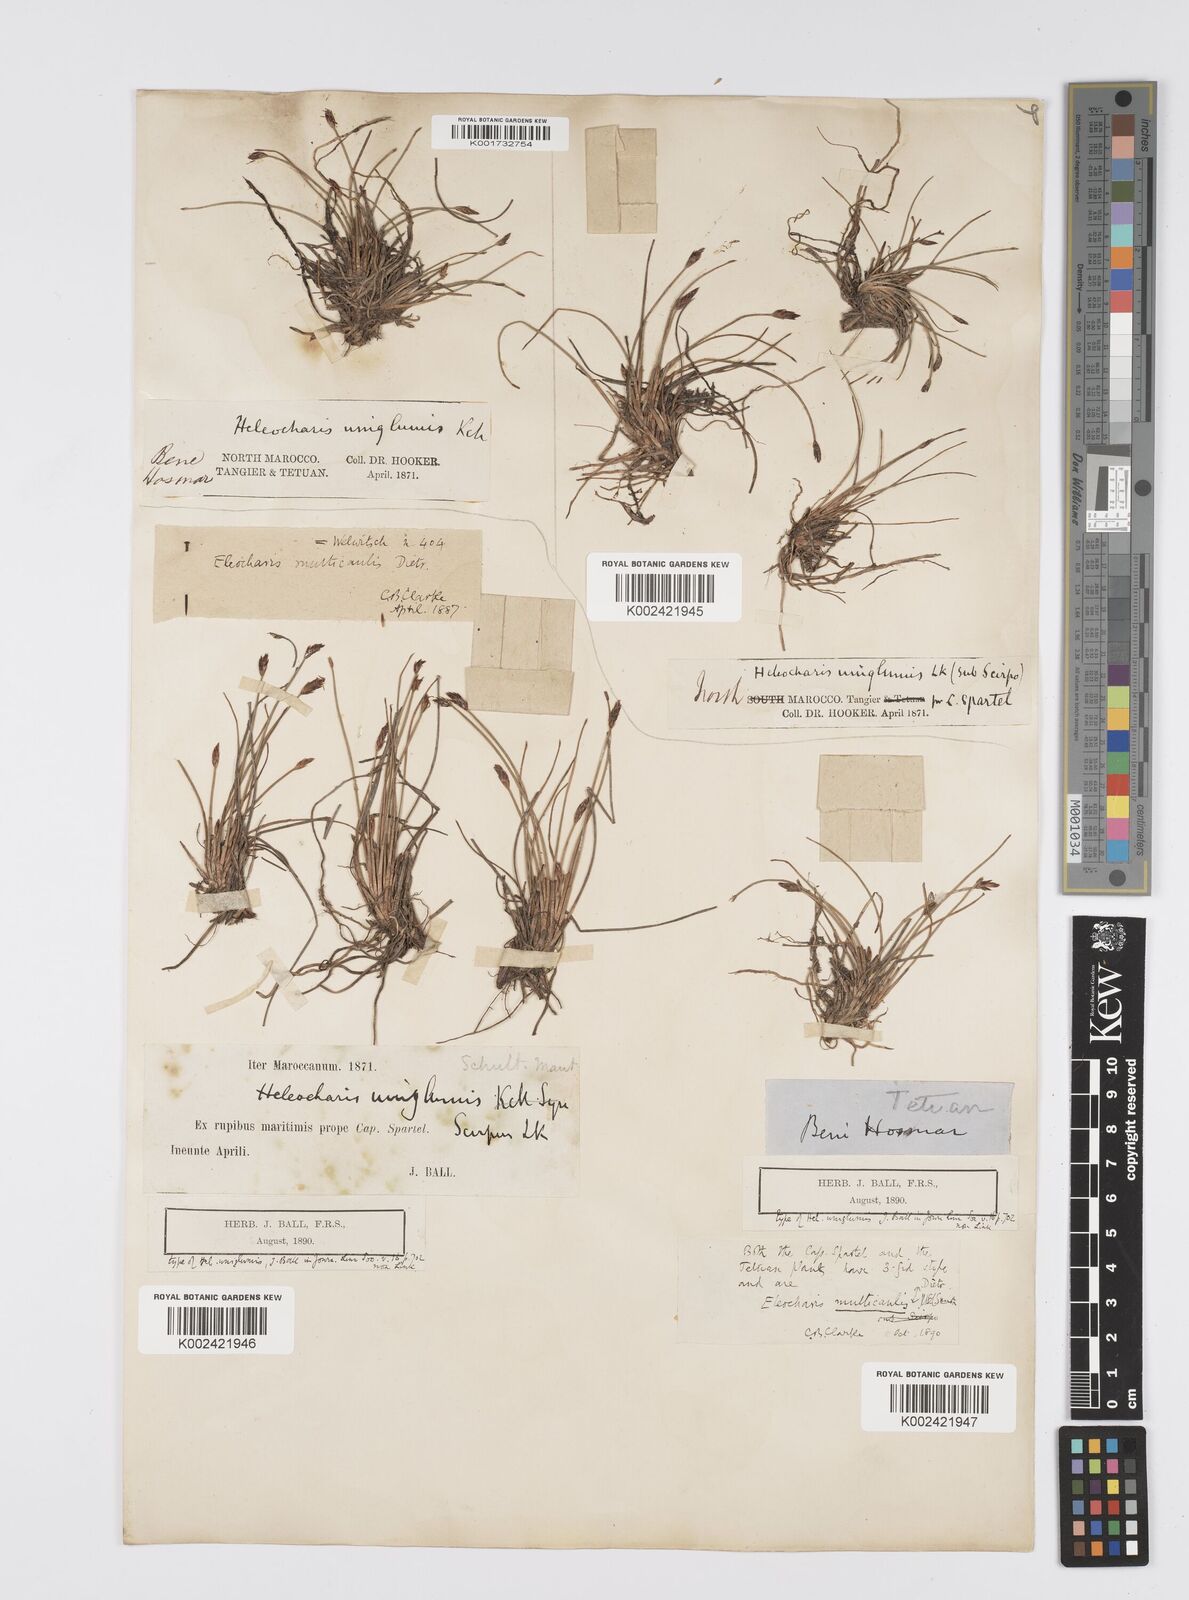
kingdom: Plantae
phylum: Tracheophyta
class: Liliopsida
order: Poales
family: Cyperaceae
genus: Eleocharis
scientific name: Eleocharis multicaulis
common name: Many-stalked spike-rush
